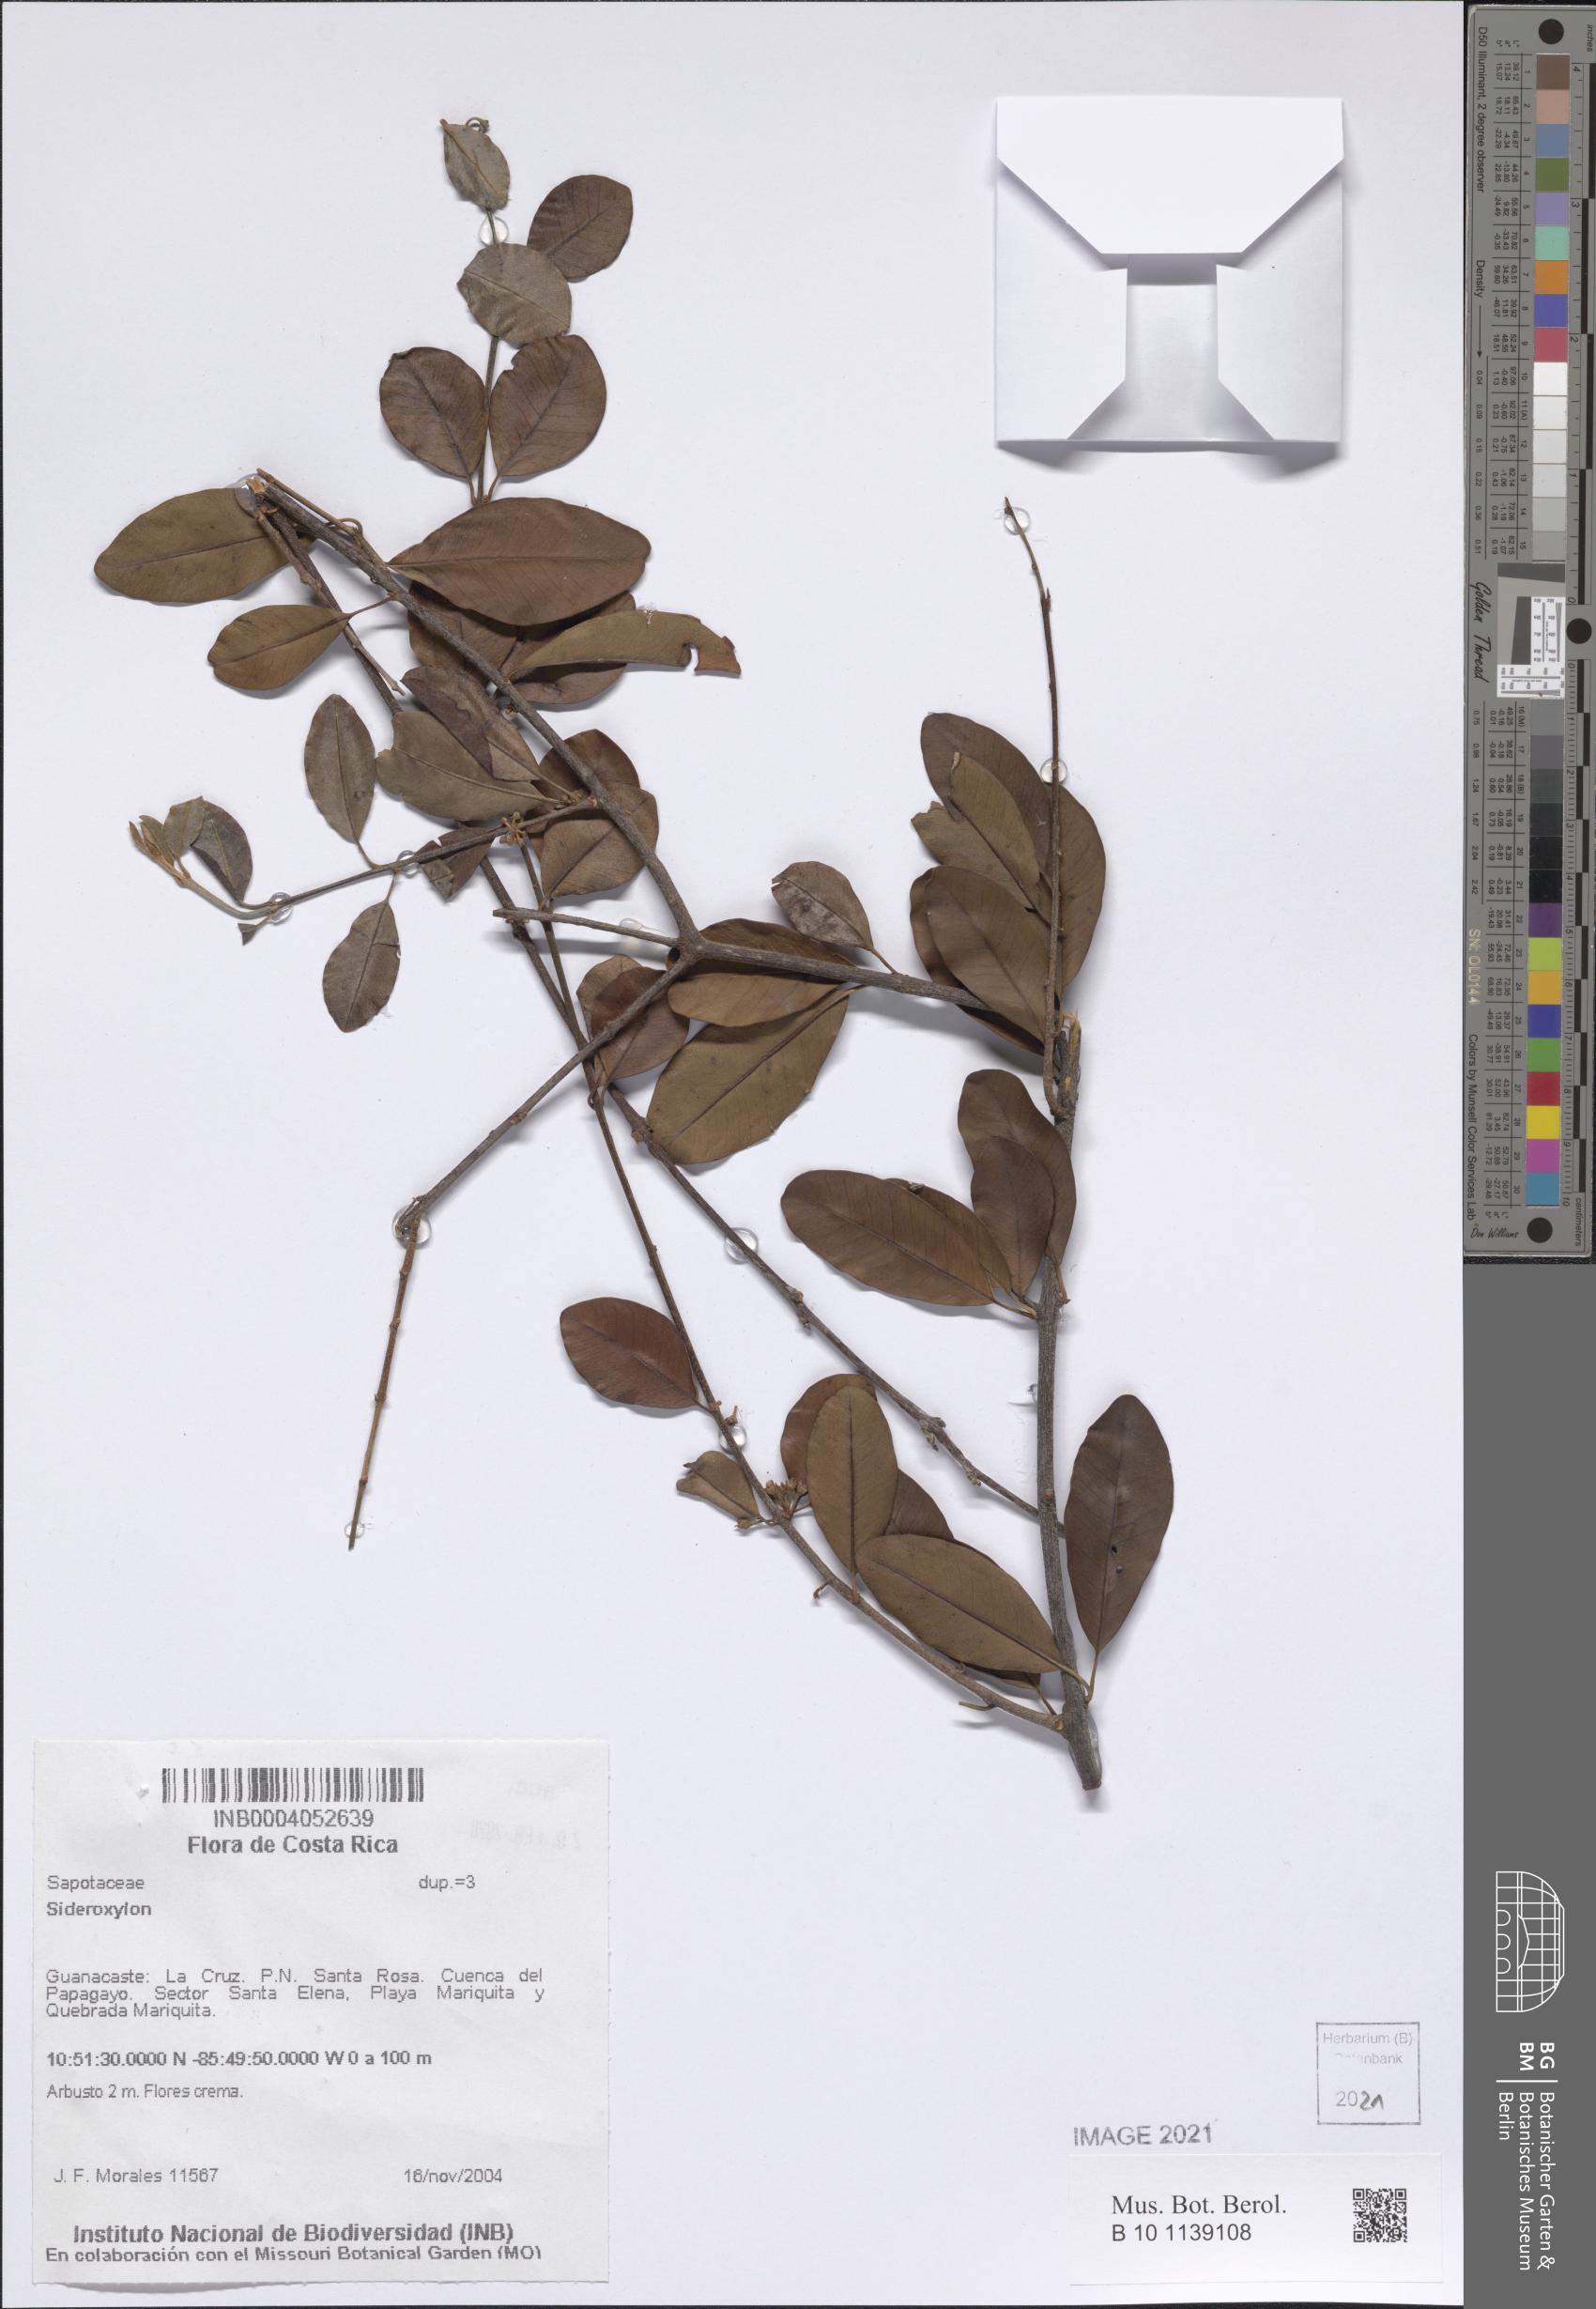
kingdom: Plantae
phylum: Tracheophyta
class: Magnoliopsida
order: Ericales
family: Sapotaceae
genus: Sideroxylon
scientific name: Sideroxylon
